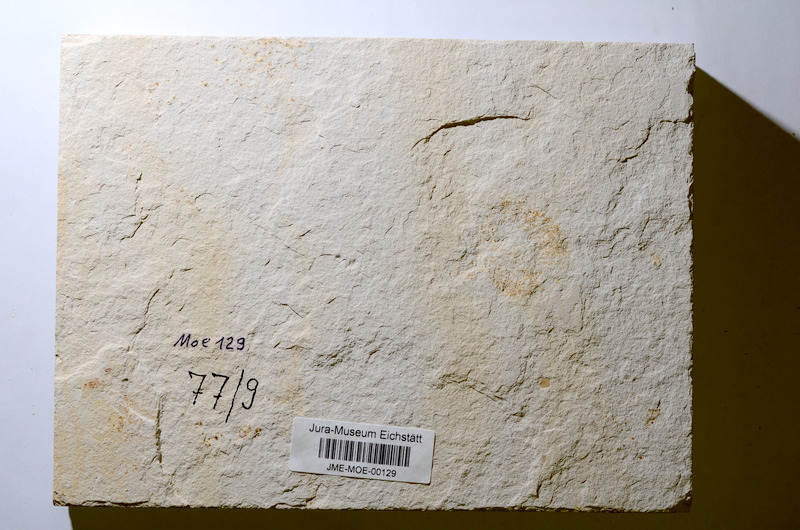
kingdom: Animalia
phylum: Chordata
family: Ankylophoridae
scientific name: Ankylophoridae
